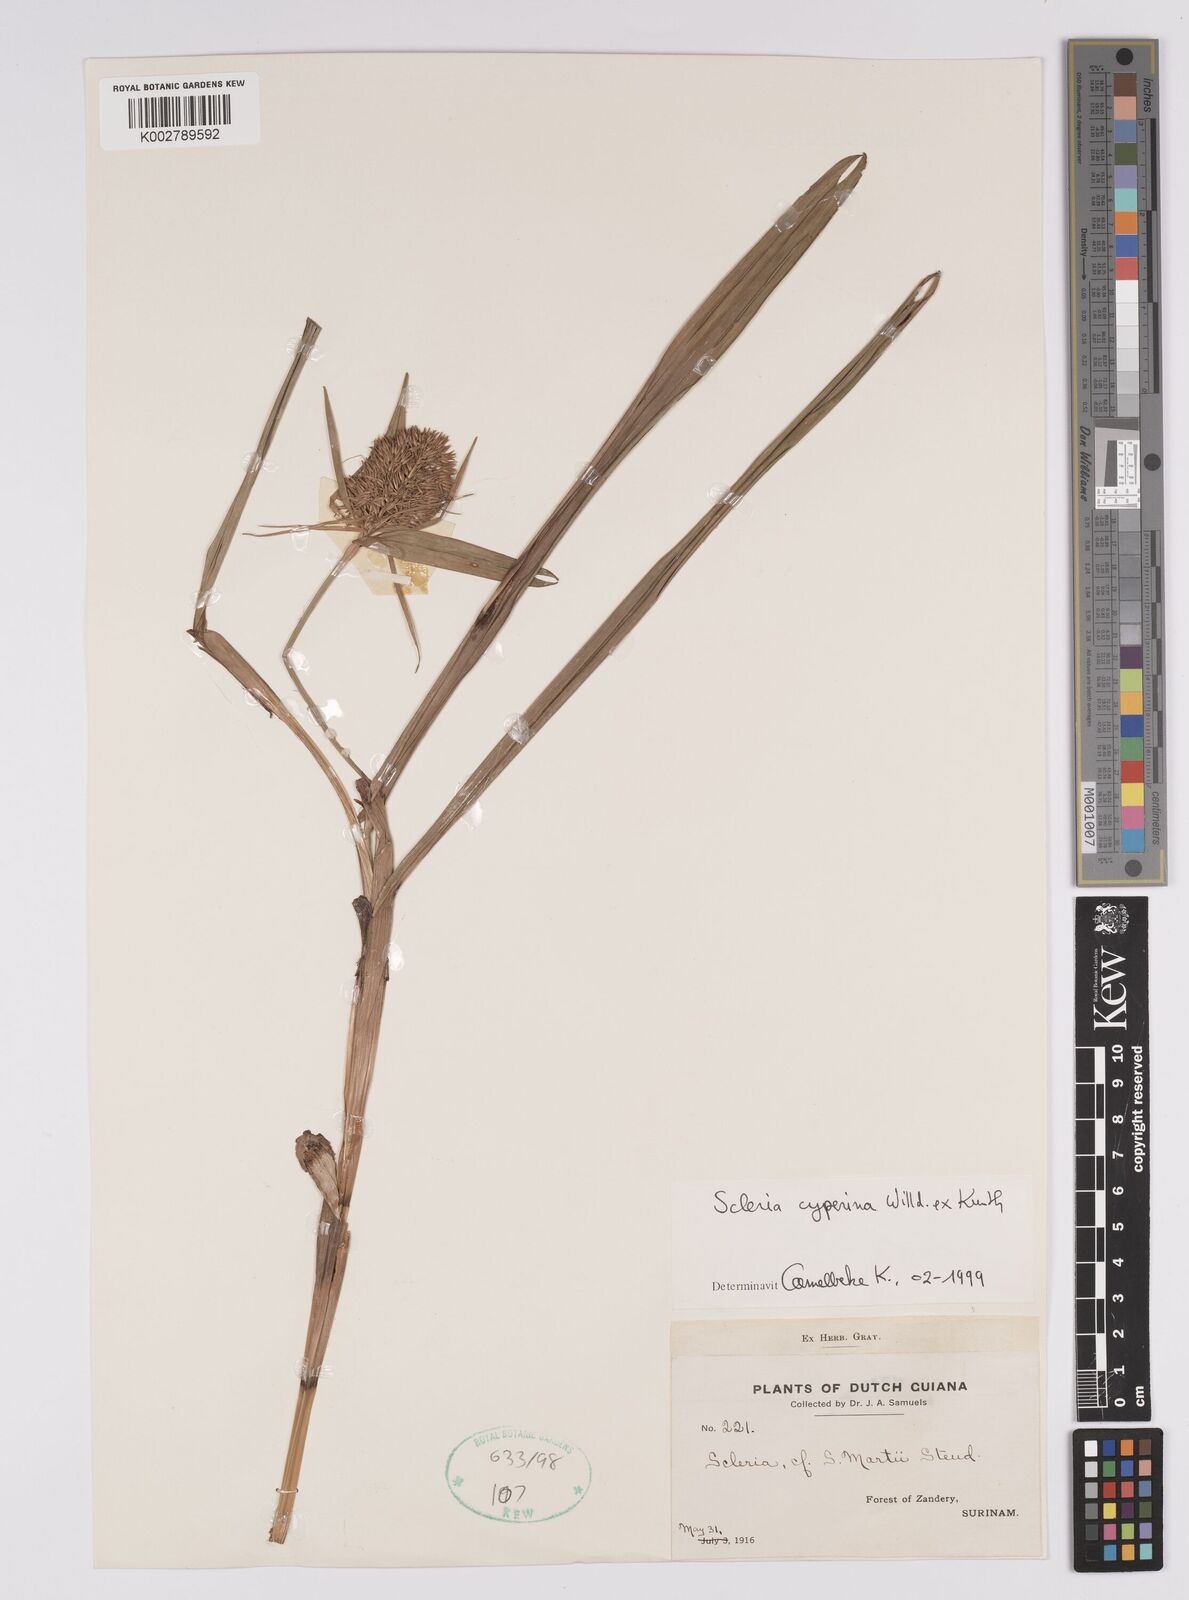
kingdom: Plantae
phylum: Tracheophyta
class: Liliopsida
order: Poales
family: Cyperaceae
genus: Scleria
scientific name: Scleria cyperina
